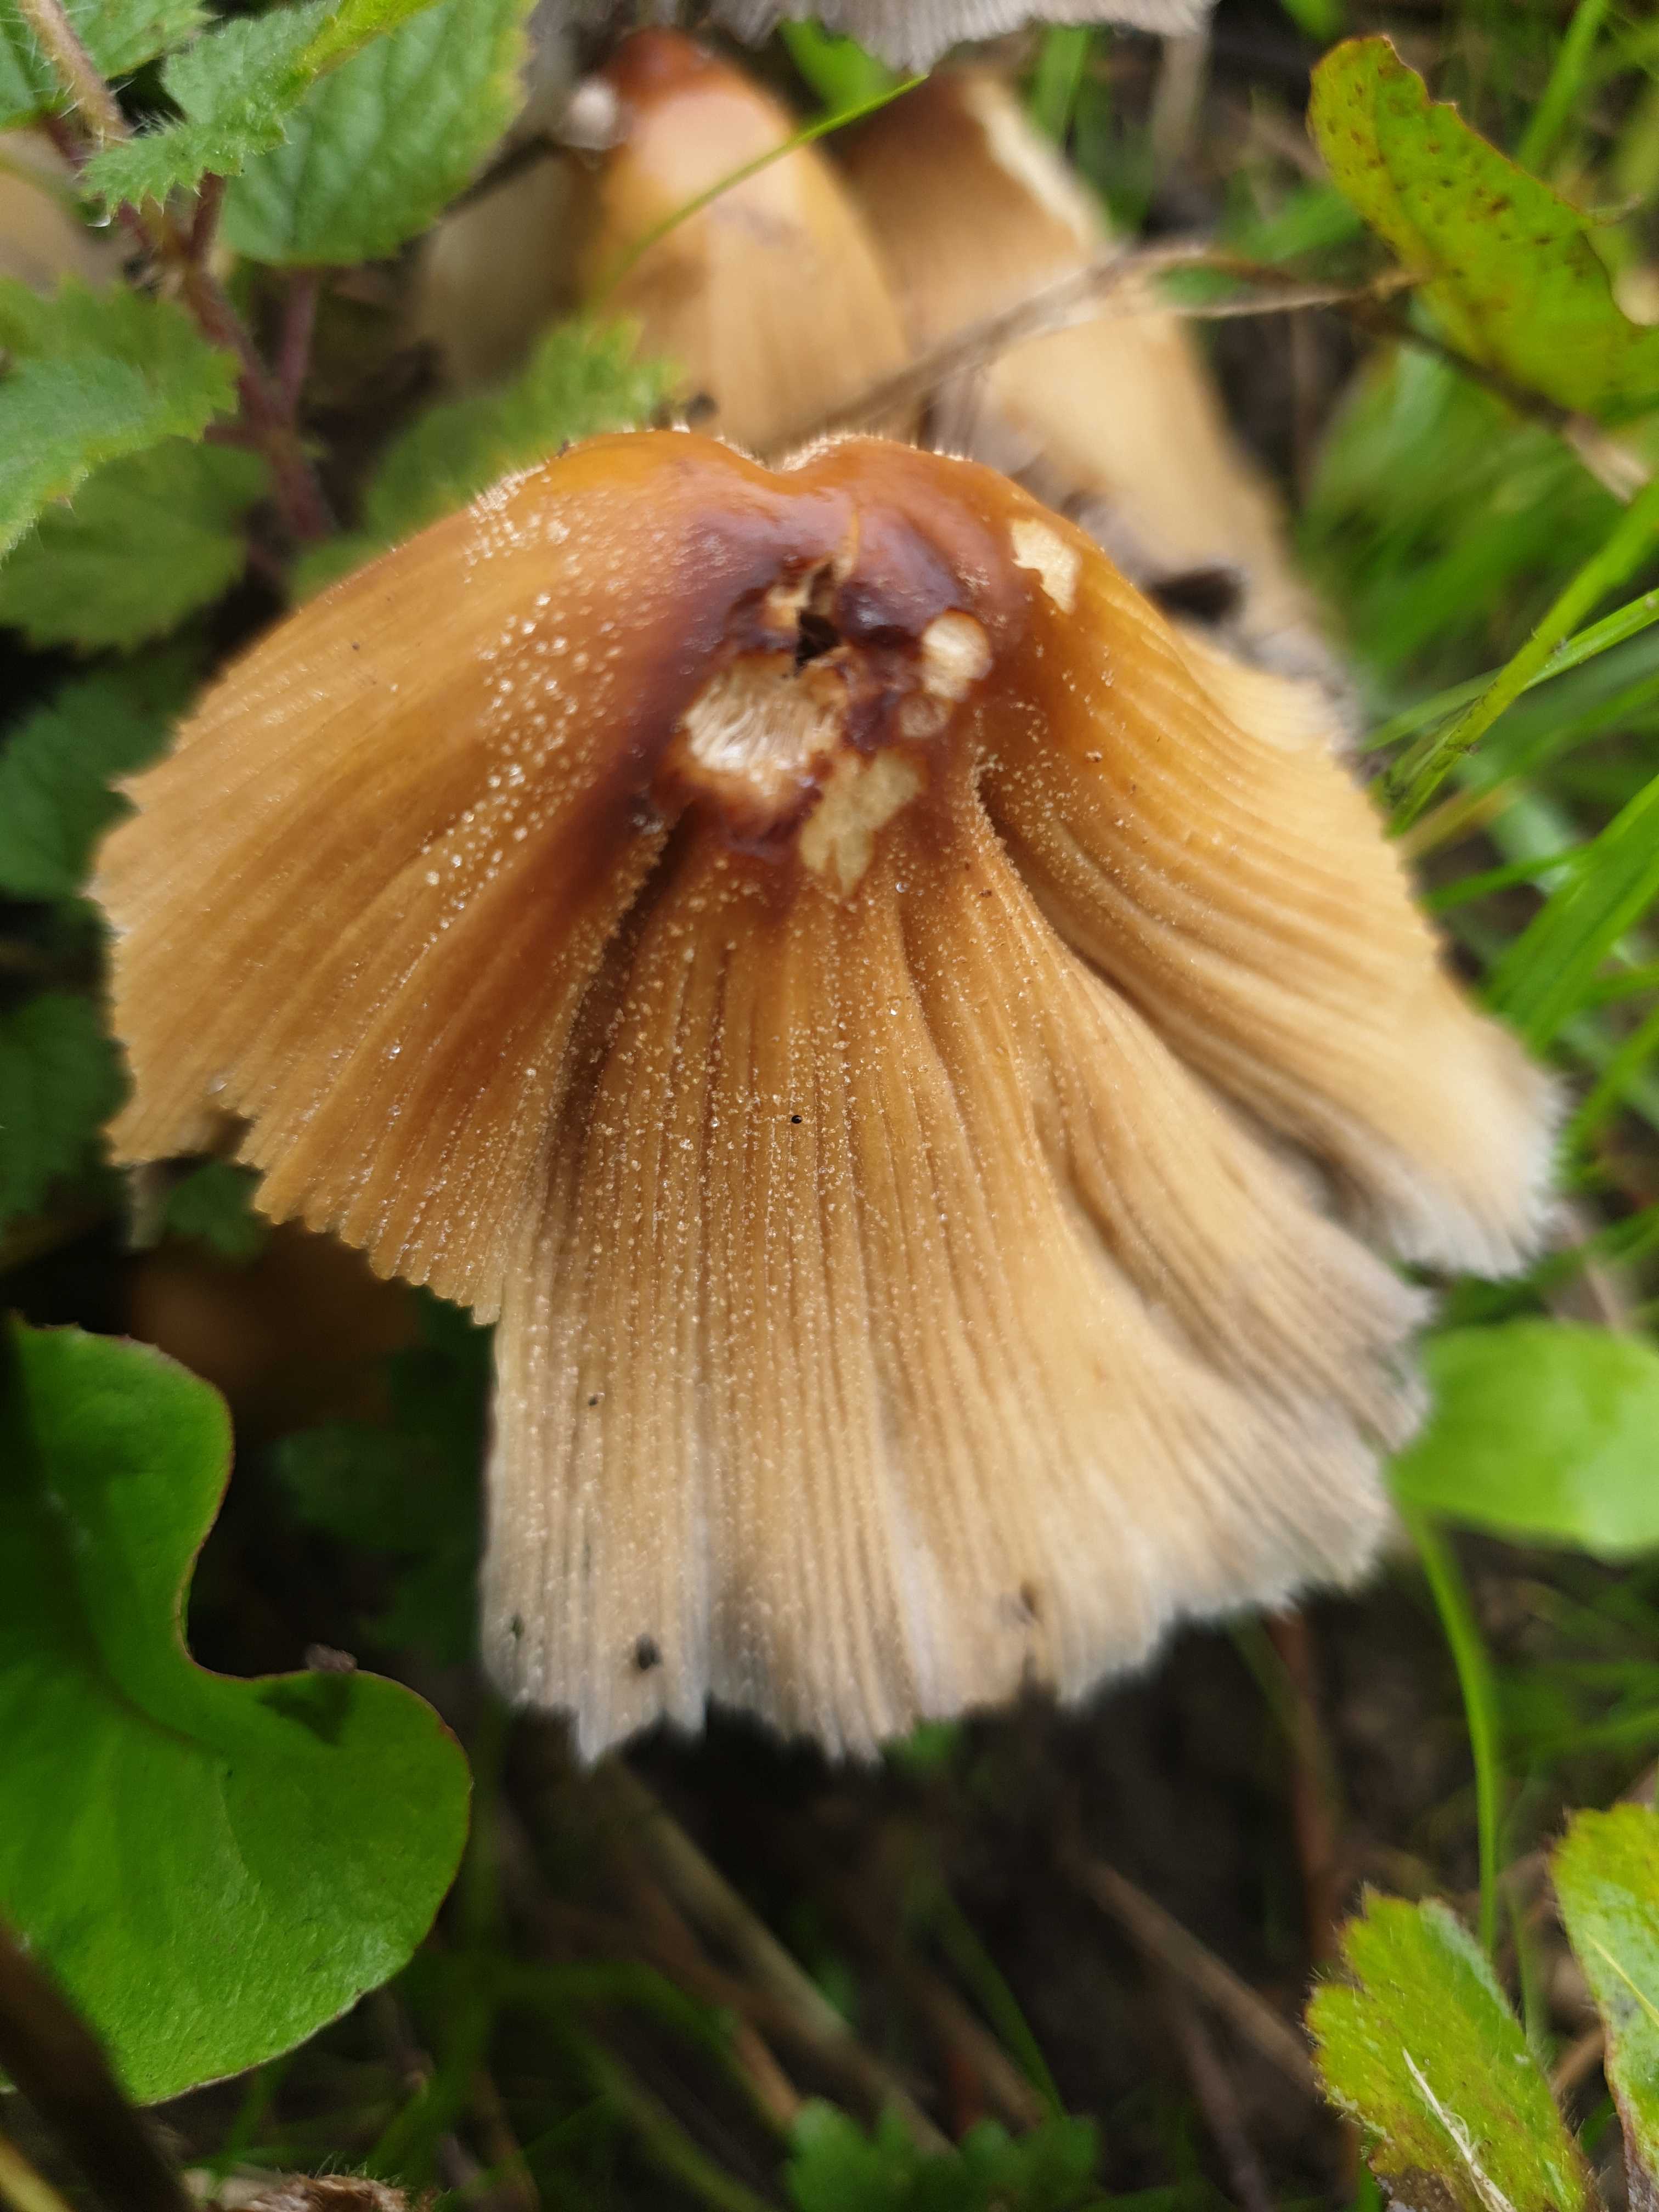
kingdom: Fungi
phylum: Basidiomycota
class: Agaricomycetes
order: Agaricales
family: Psathyrellaceae
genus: Coprinellus
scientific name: Coprinellus micaceus
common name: glimmer-blækhat
